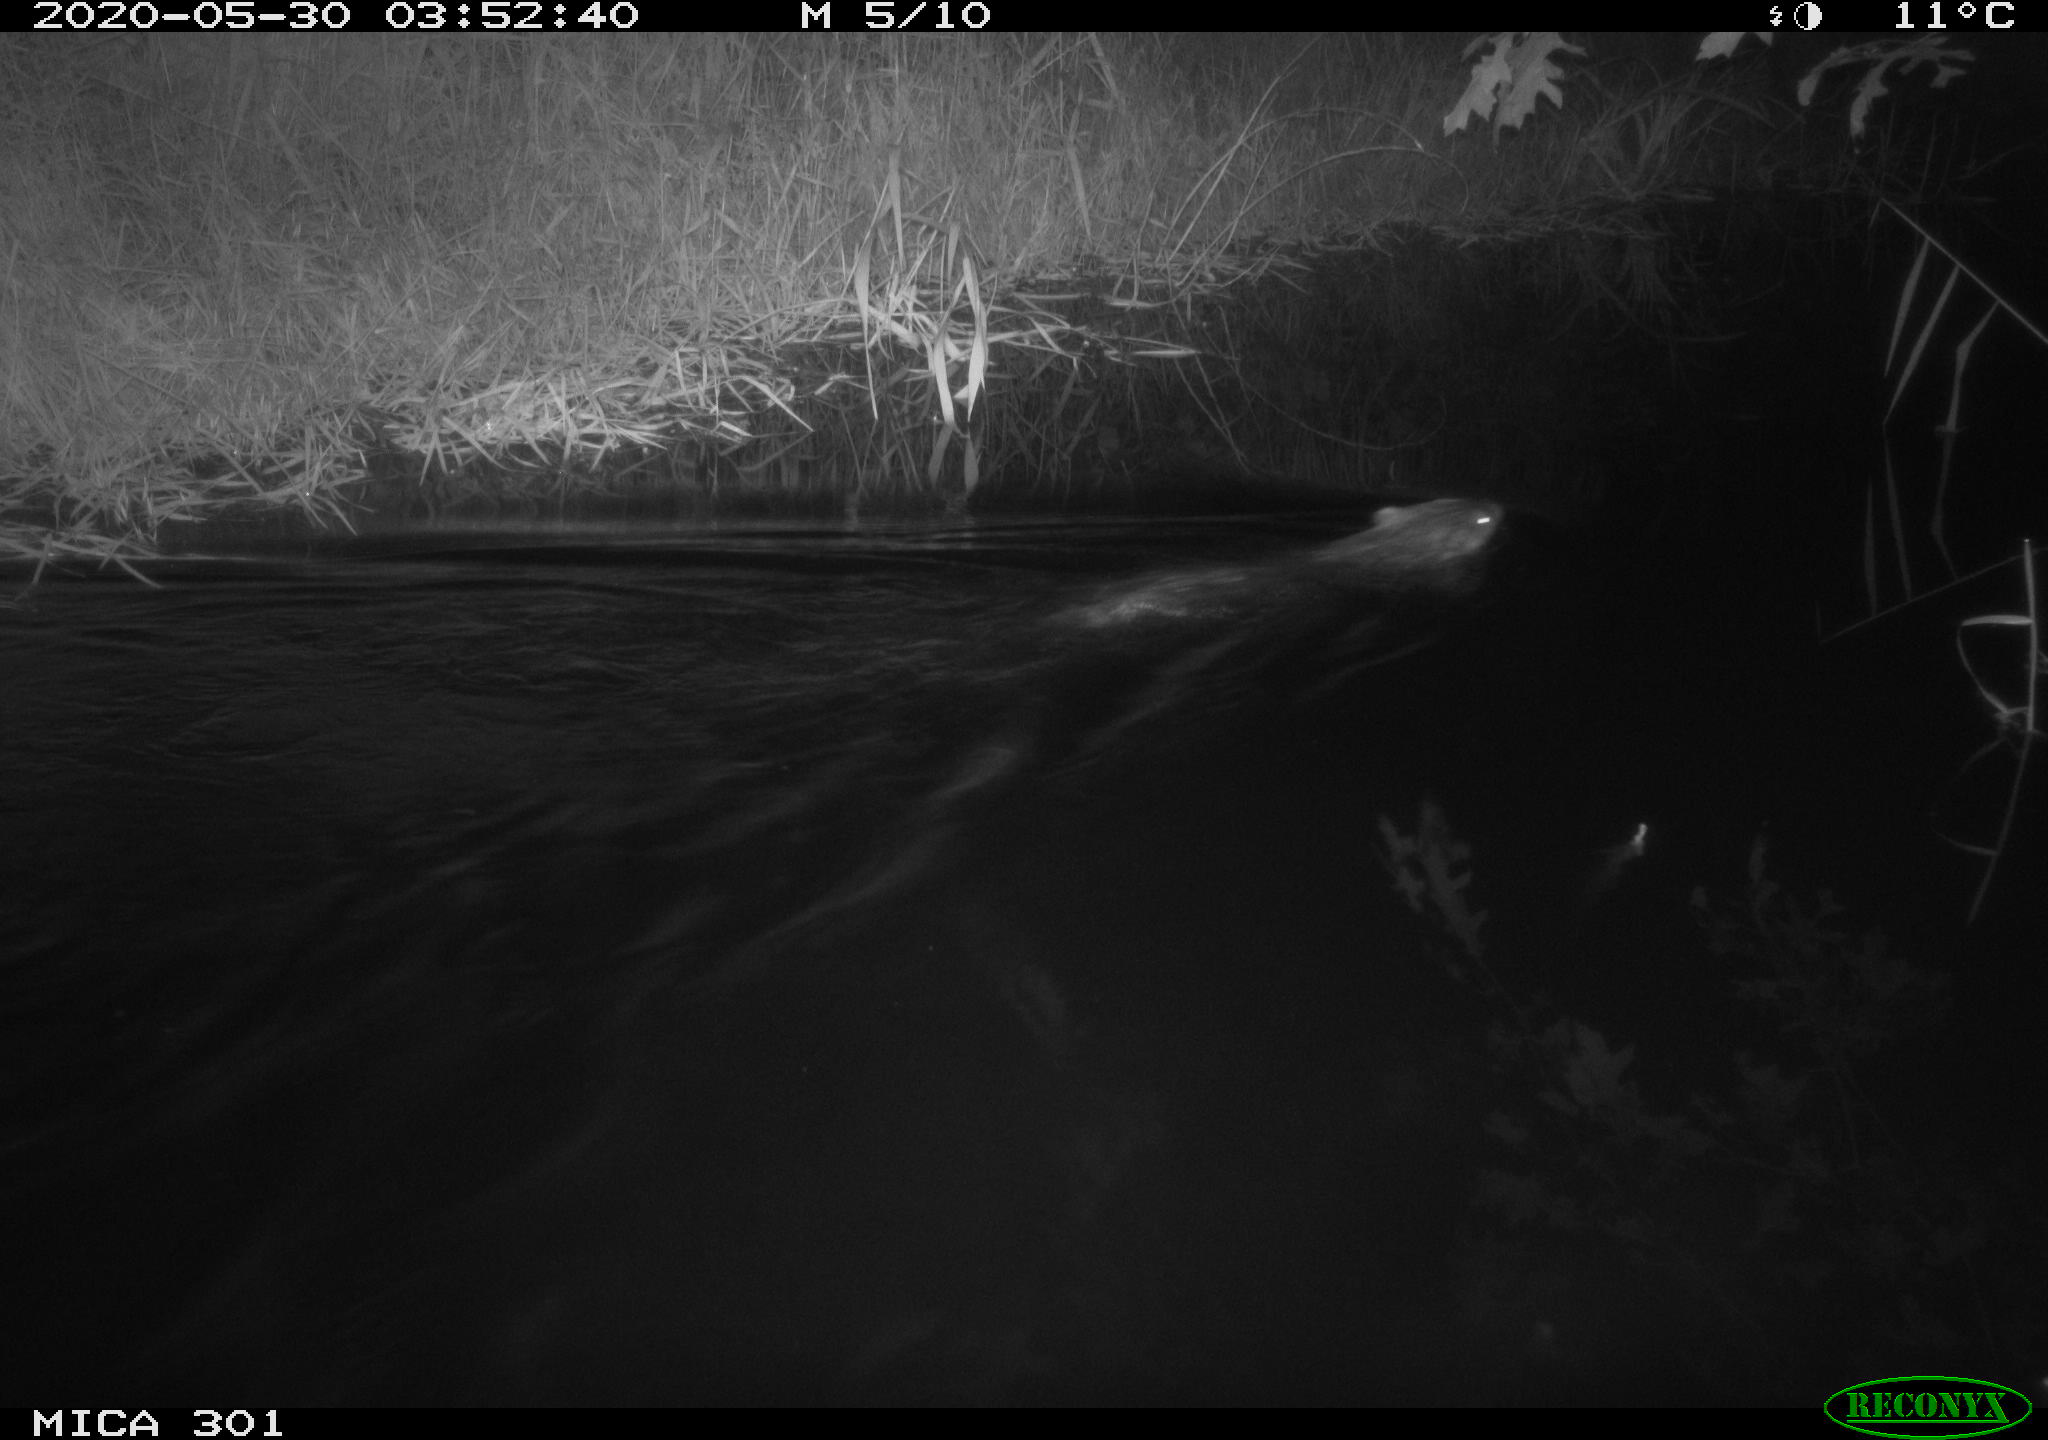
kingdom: Animalia
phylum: Chordata
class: Mammalia
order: Rodentia
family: Castoridae
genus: Castor
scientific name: Castor fiber
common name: Eurasian beaver
